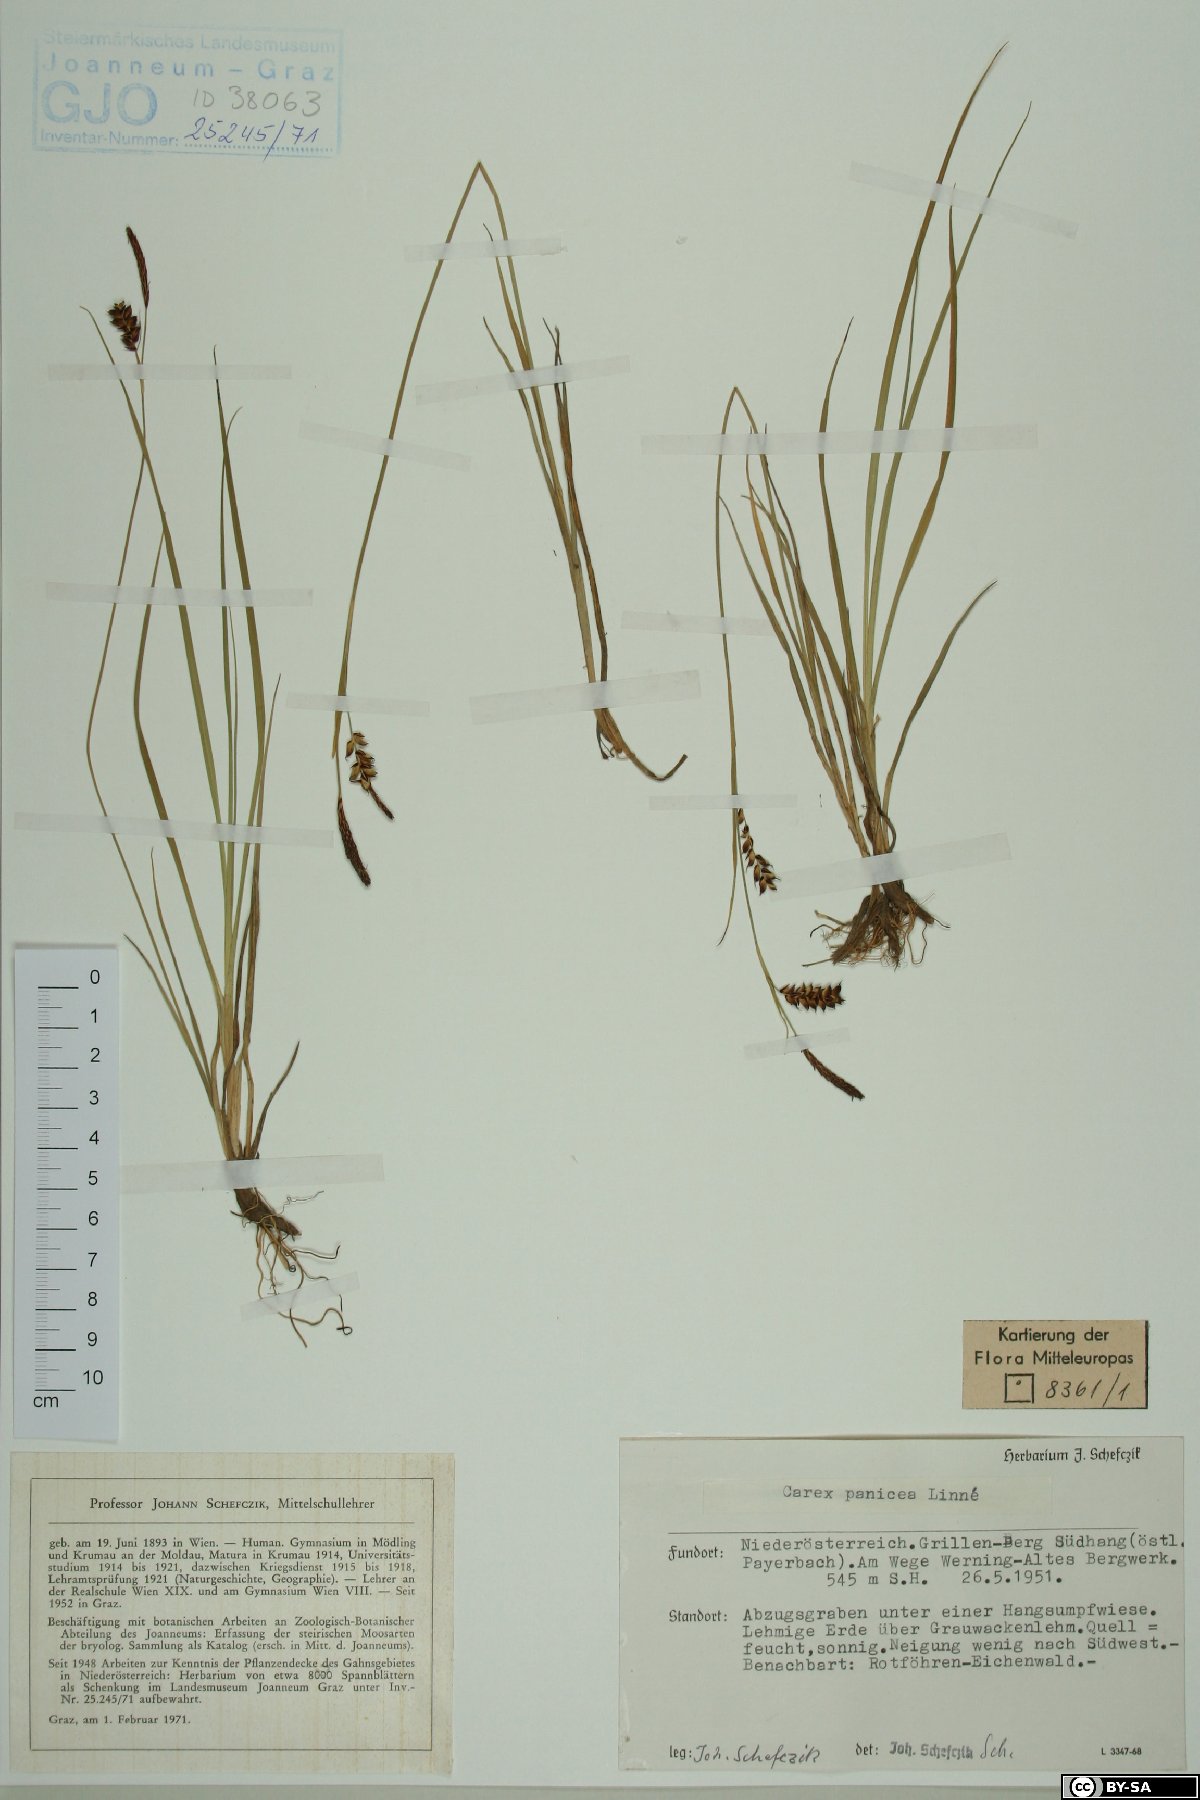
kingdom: Plantae
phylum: Tracheophyta
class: Liliopsida
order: Poales
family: Cyperaceae
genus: Carex
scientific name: Carex panicea
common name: Carnation sedge
